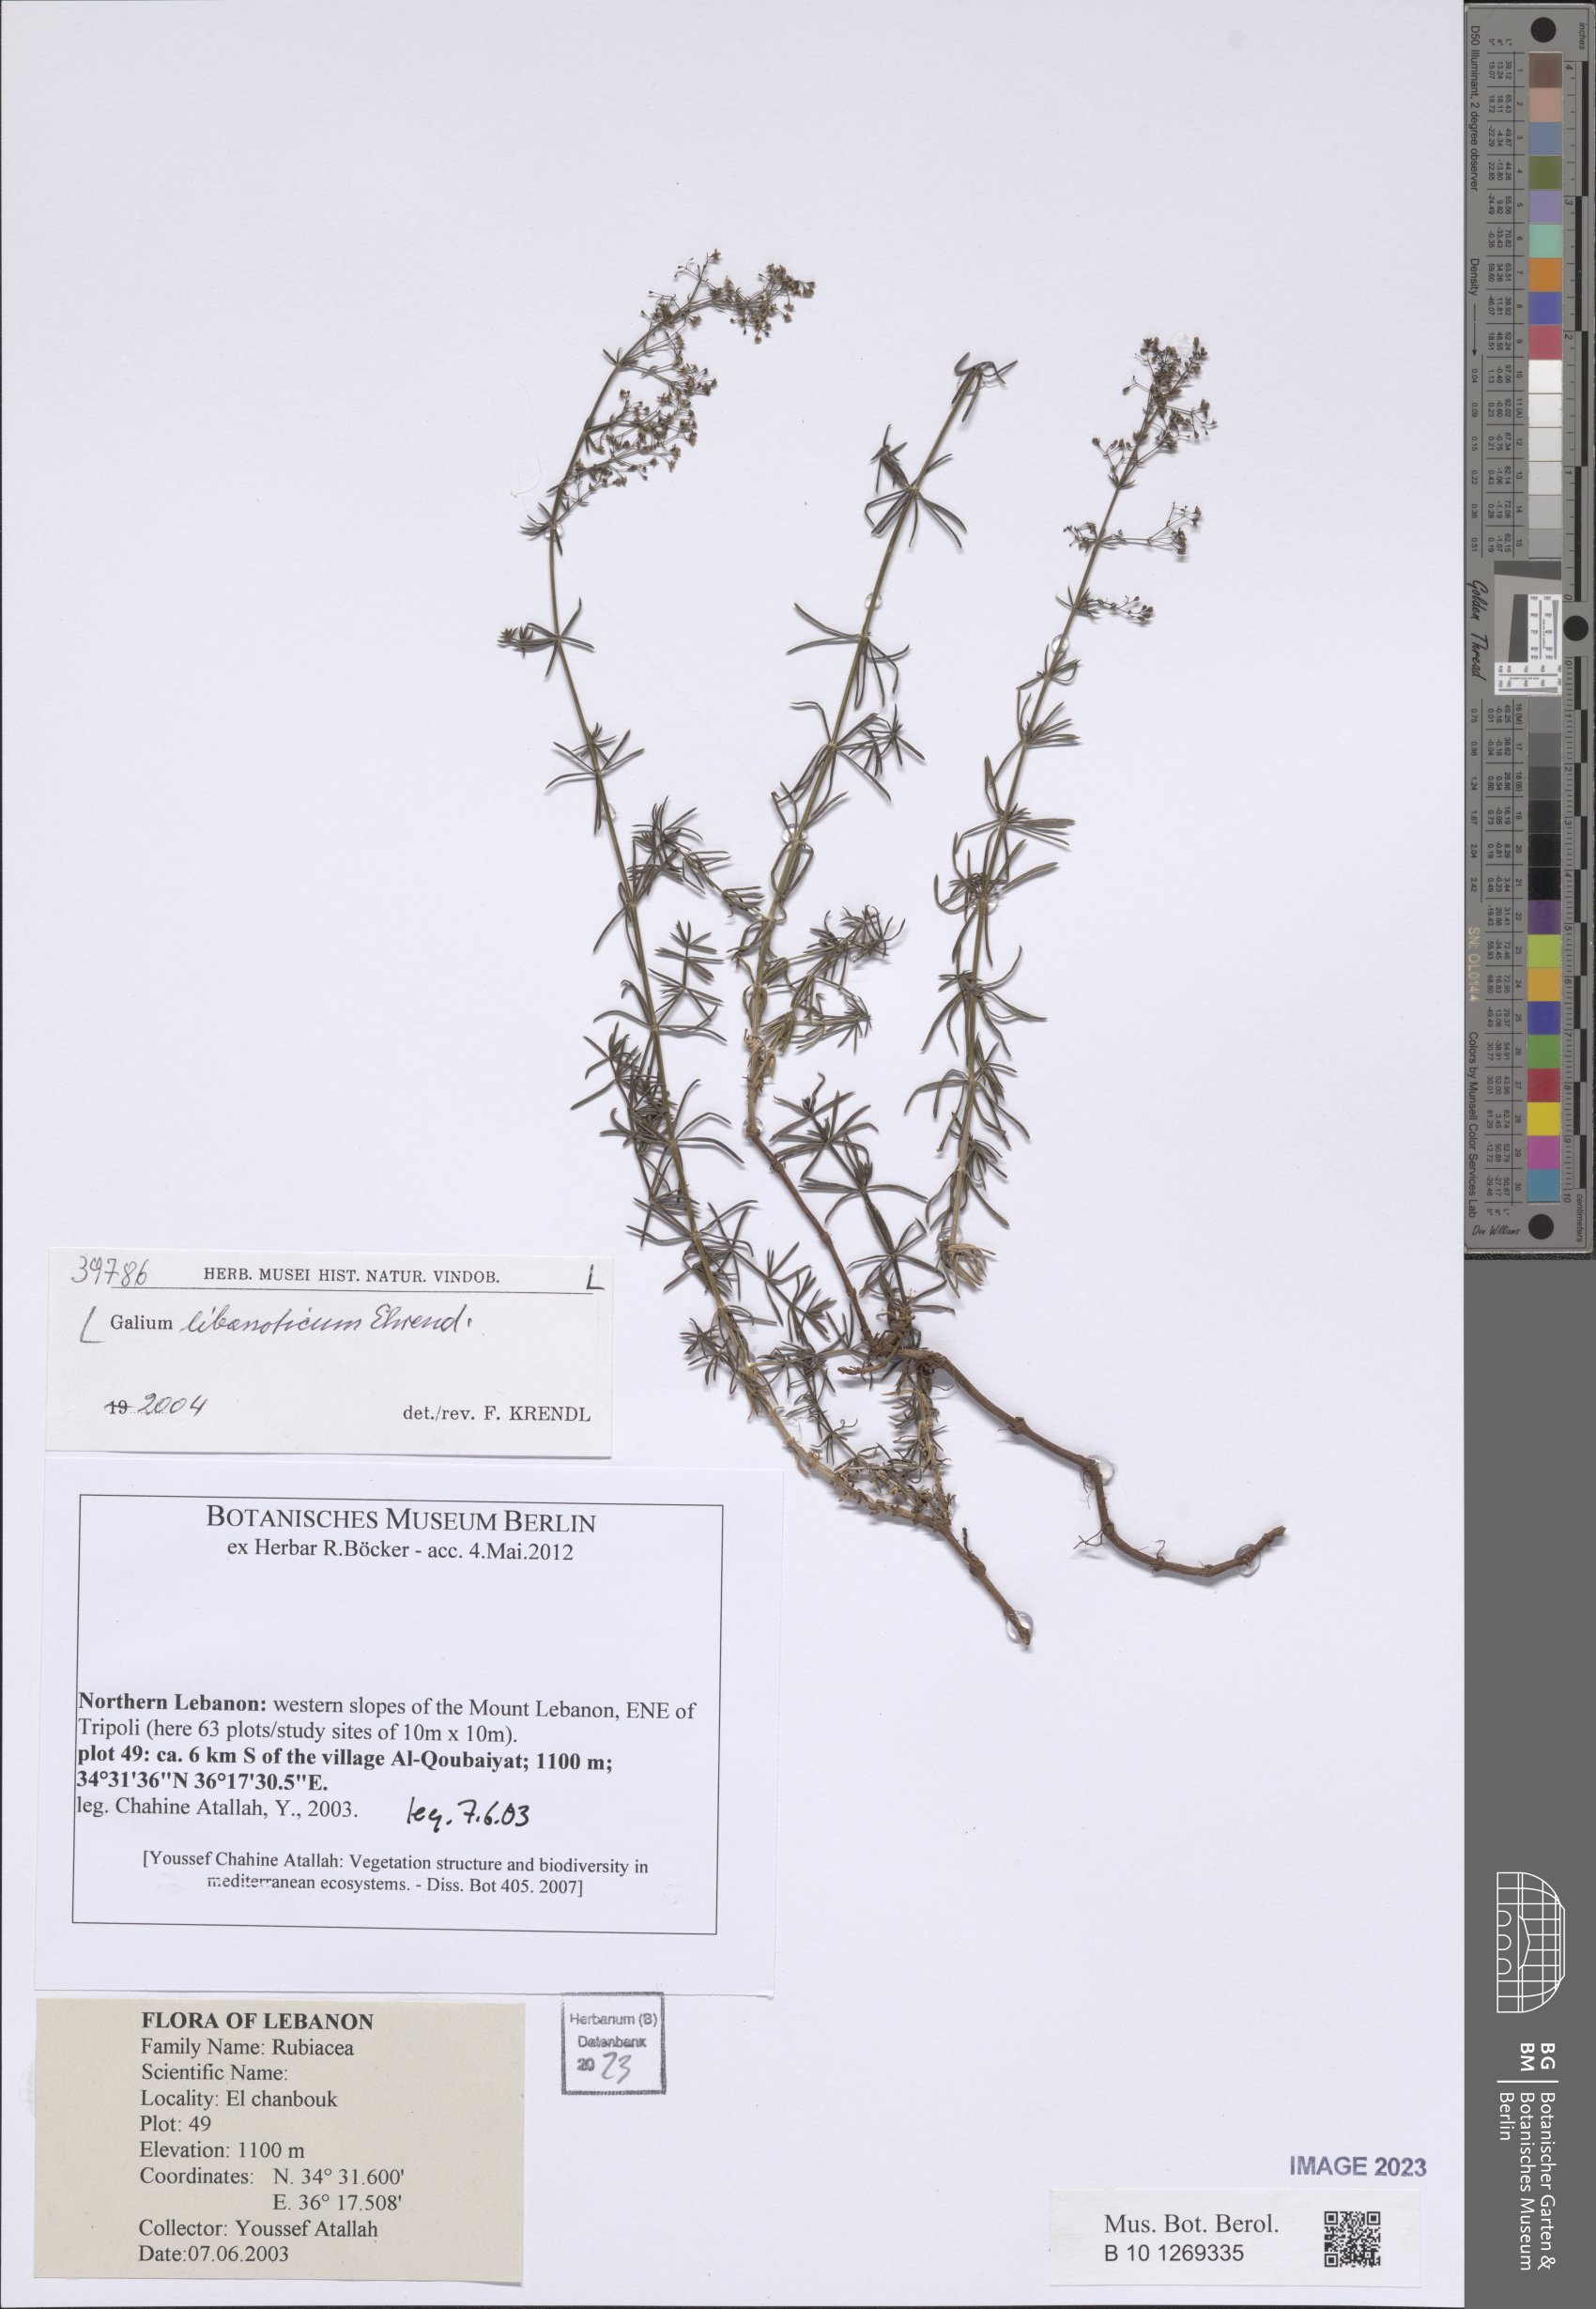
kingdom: Plantae
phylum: Tracheophyta
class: Magnoliopsida
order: Gentianales
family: Rubiaceae
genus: Galium
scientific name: Galium libanoticum
